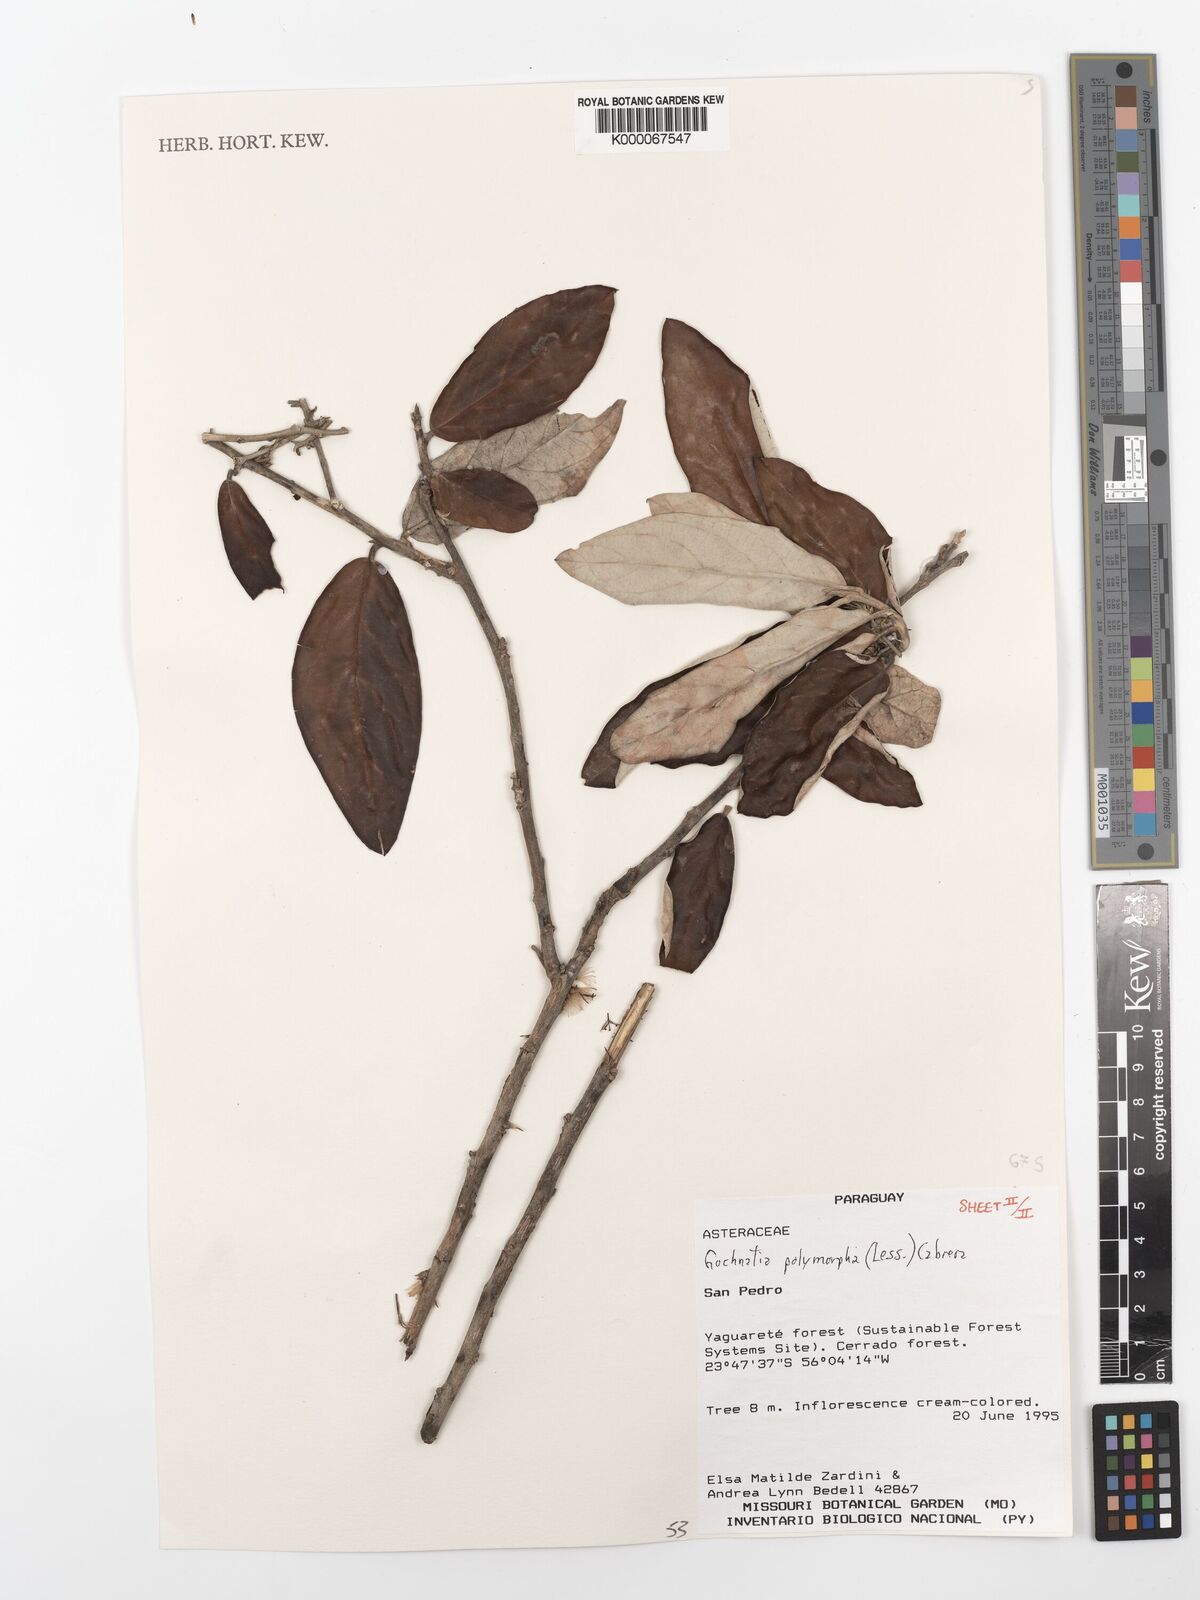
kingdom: Plantae
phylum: Tracheophyta
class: Magnoliopsida
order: Asterales
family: Asteraceae
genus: Moquiniastrum
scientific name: Moquiniastrum polymorphum
